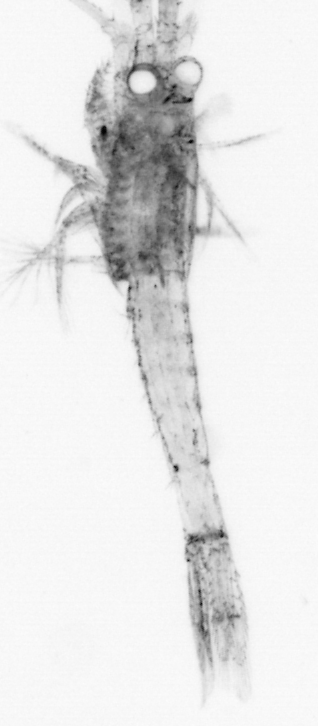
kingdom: Animalia
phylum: Arthropoda
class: Malacostraca
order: Decapoda
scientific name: Decapoda
